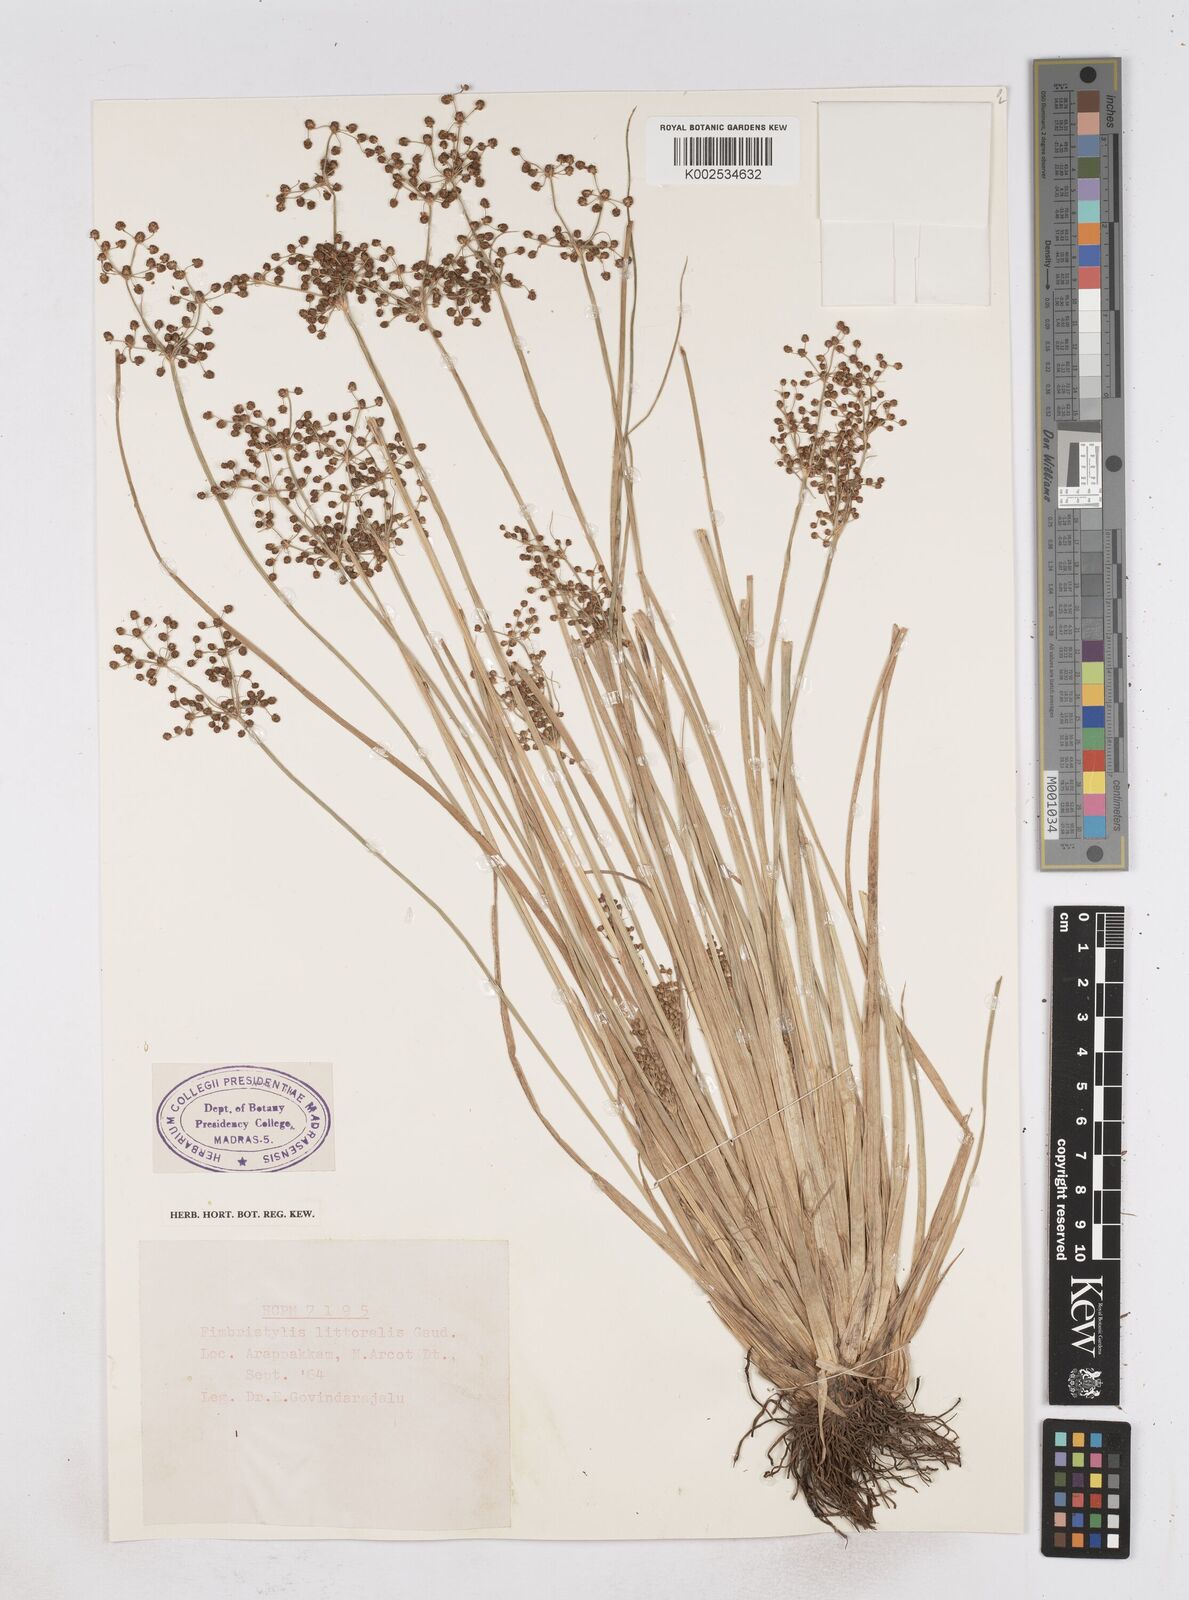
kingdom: Plantae
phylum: Tracheophyta
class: Liliopsida
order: Poales
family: Cyperaceae
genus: Fimbristylis
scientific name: Fimbristylis littoralis
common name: Fimbry
